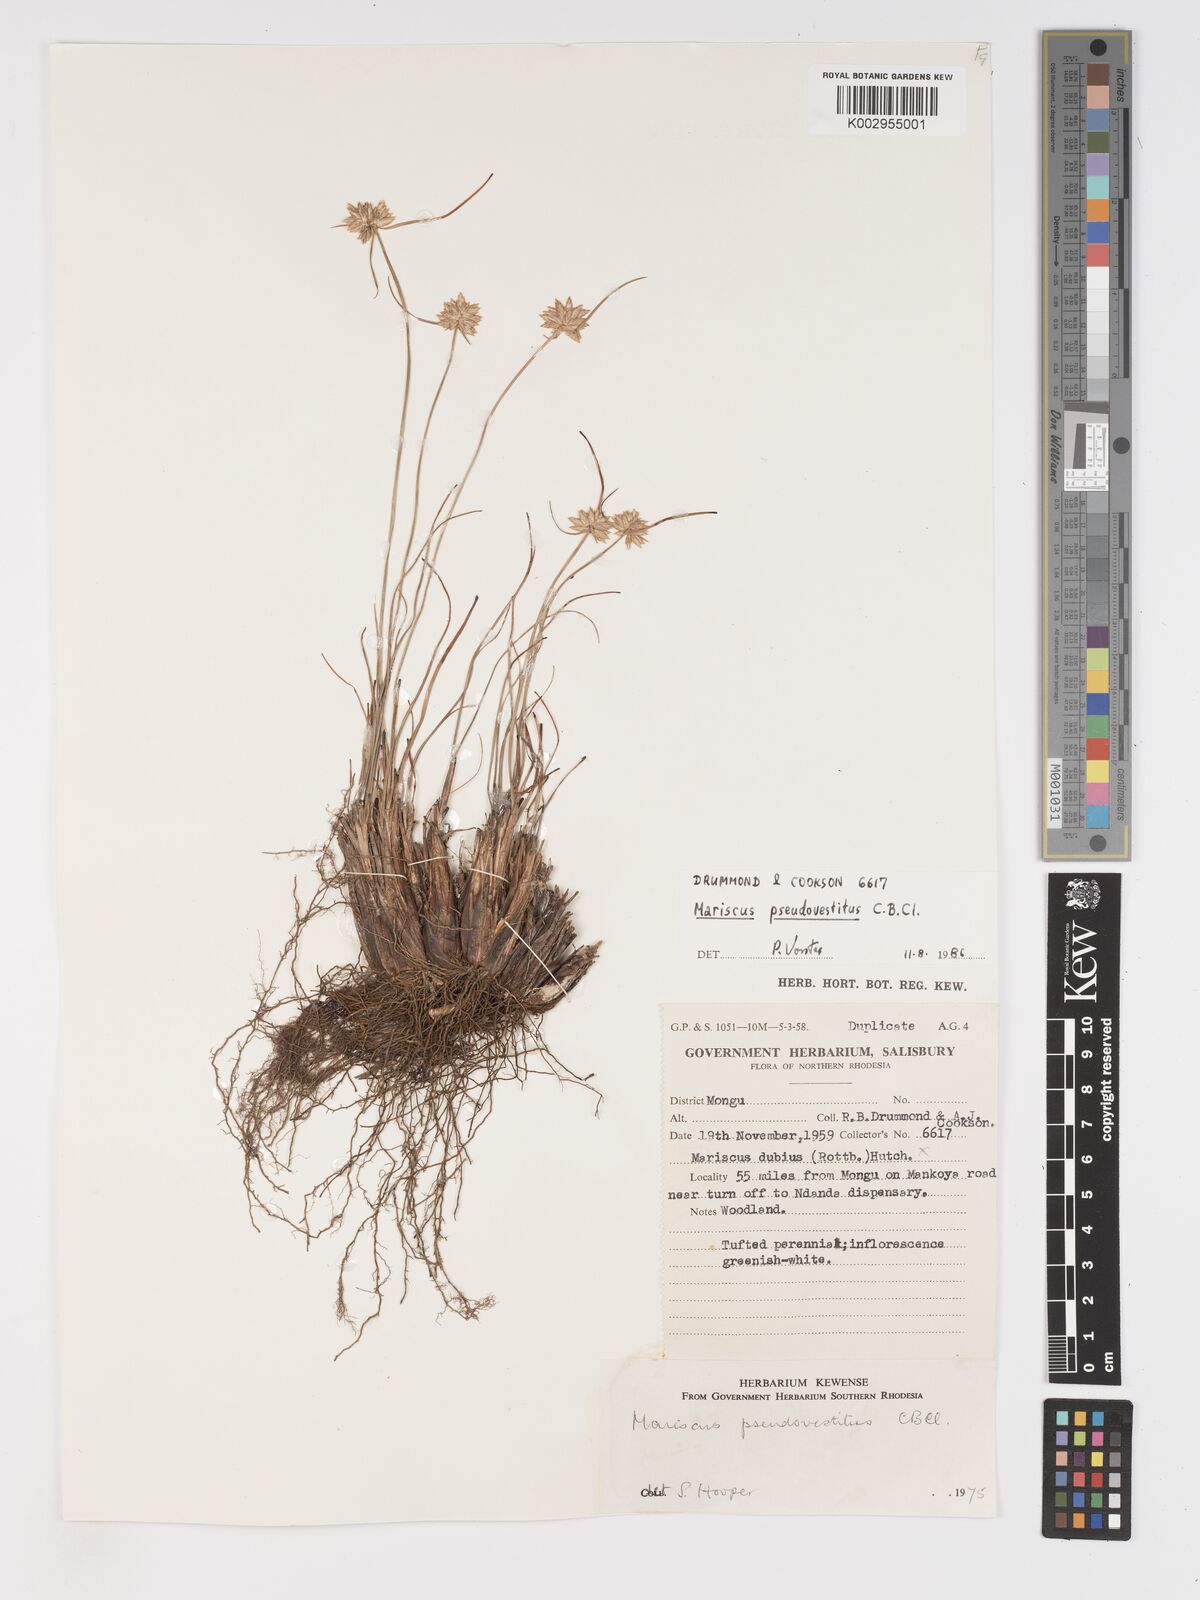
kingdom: Plantae
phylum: Tracheophyta
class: Liliopsida
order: Poales
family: Cyperaceae
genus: Cyperus
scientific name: Cyperus pseudovestitus
